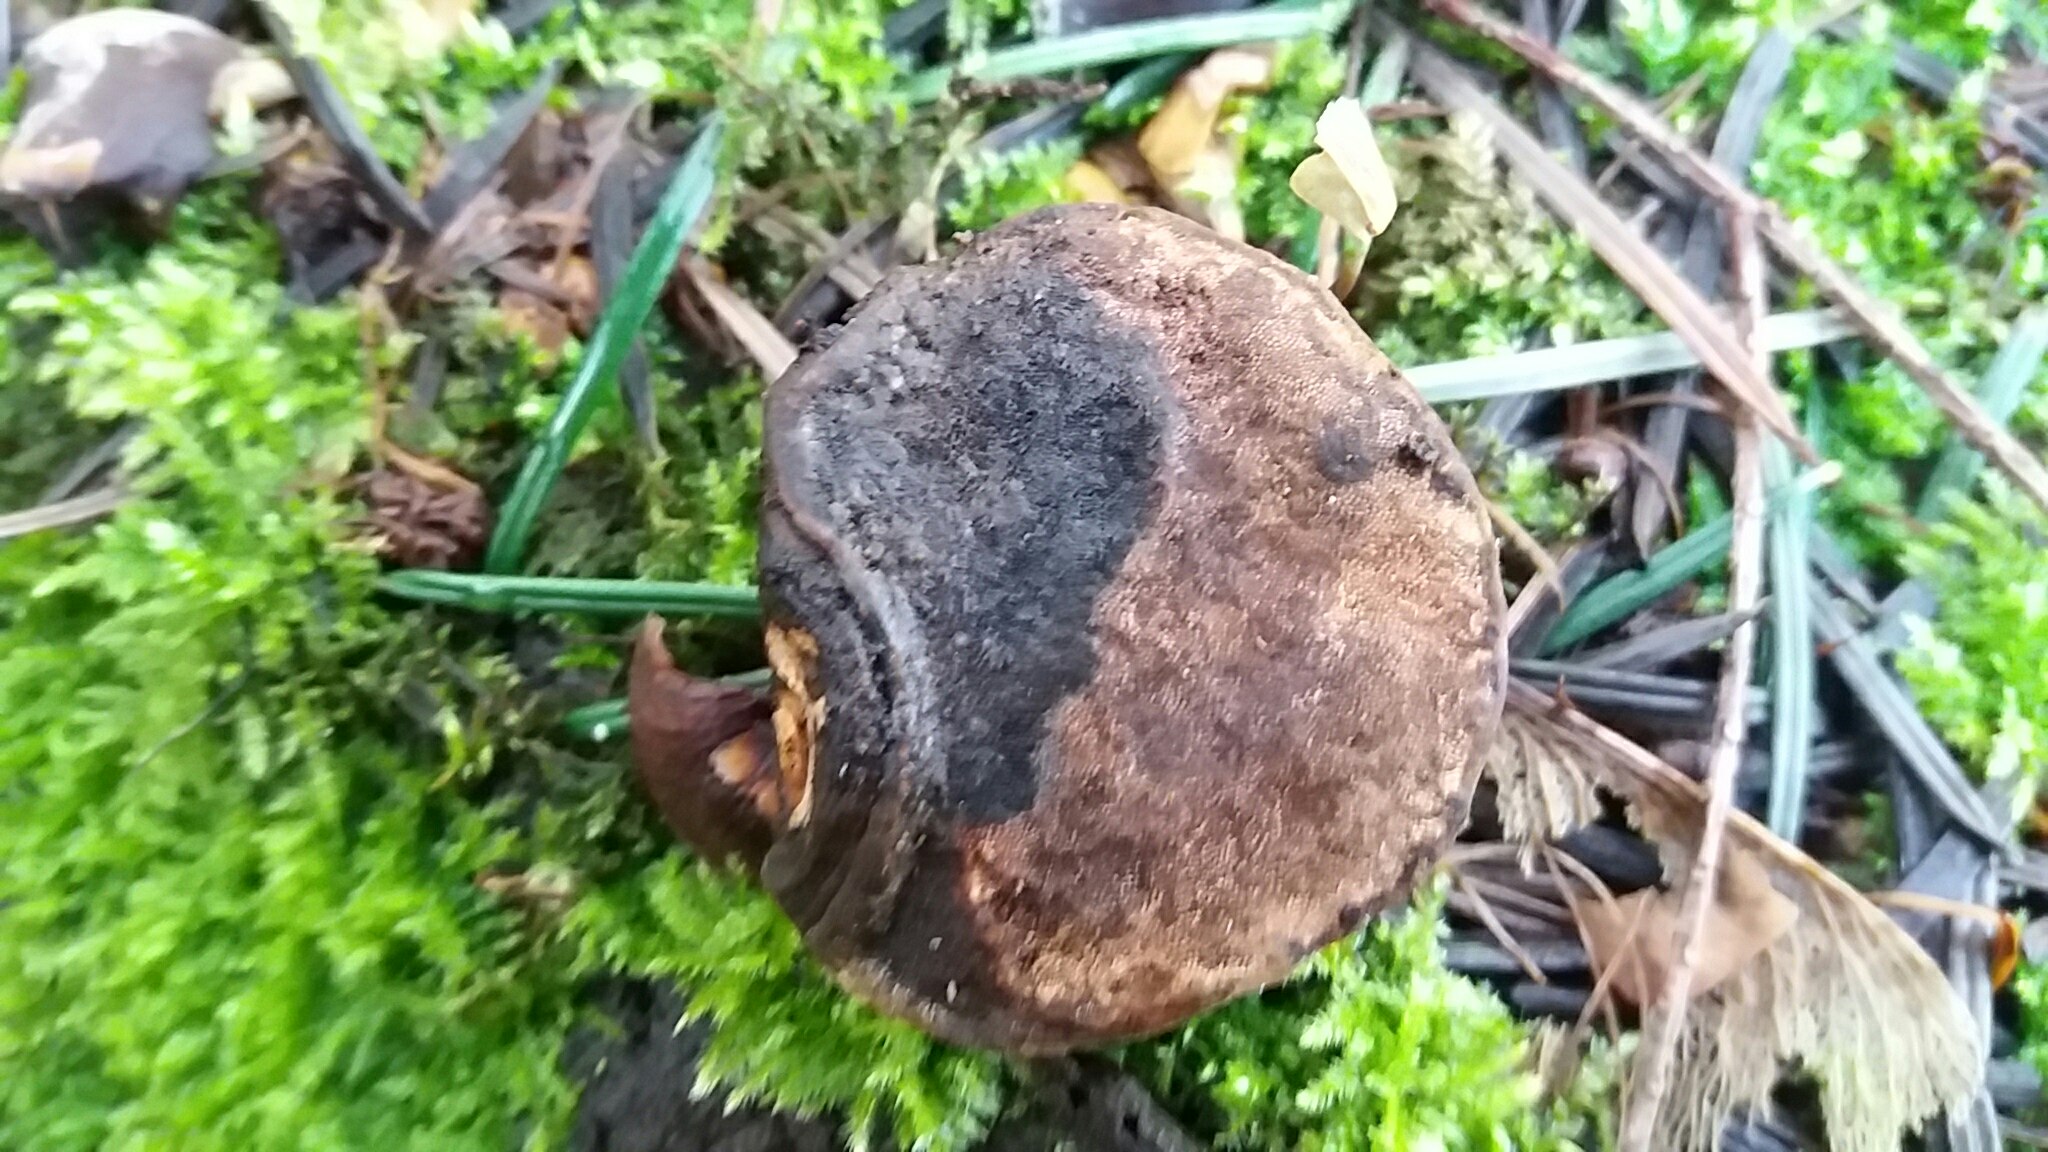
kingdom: Fungi
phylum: Basidiomycota
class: Agaricomycetes
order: Polyporales
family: Polyporaceae
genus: Ganoderma
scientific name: Ganoderma applanatum
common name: flad lakporesvamp
